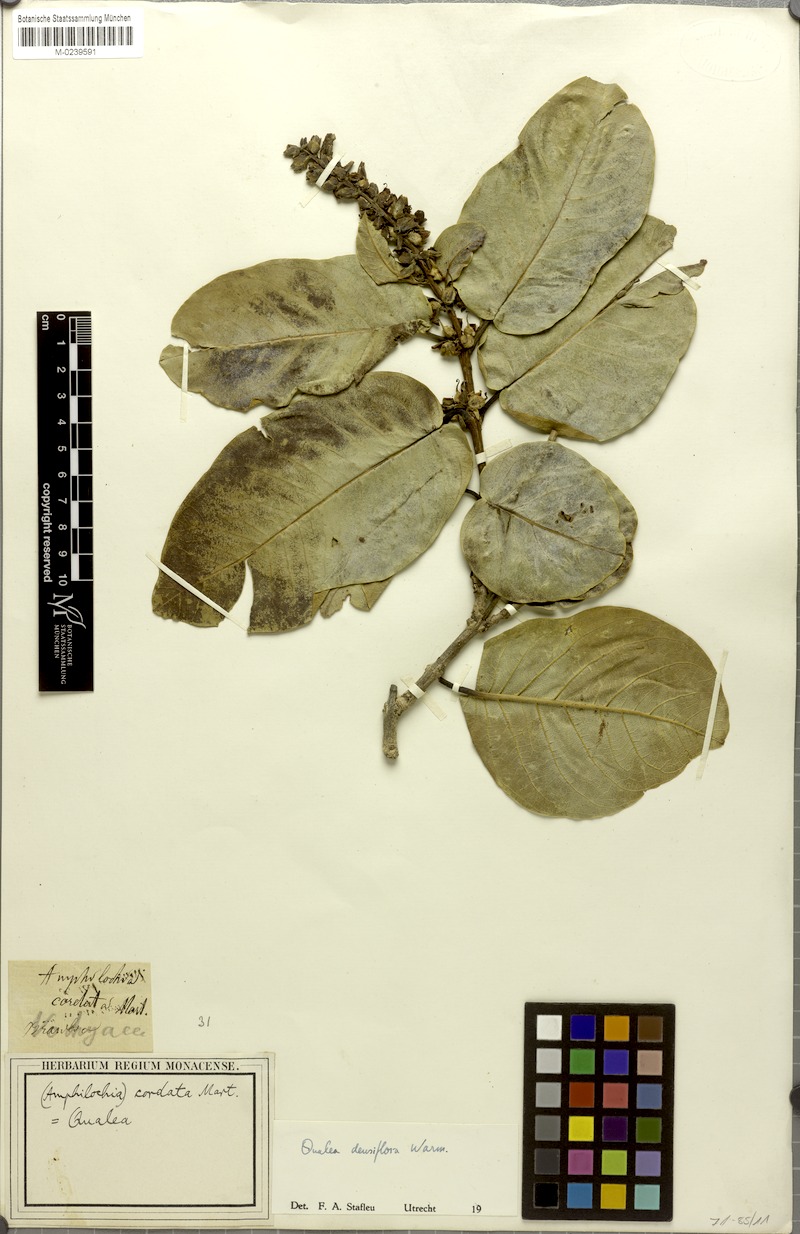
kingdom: Plantae
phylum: Tracheophyta
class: Magnoliopsida
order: Myrtales
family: Vochysiaceae
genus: Qualea
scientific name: Qualea densiflora
